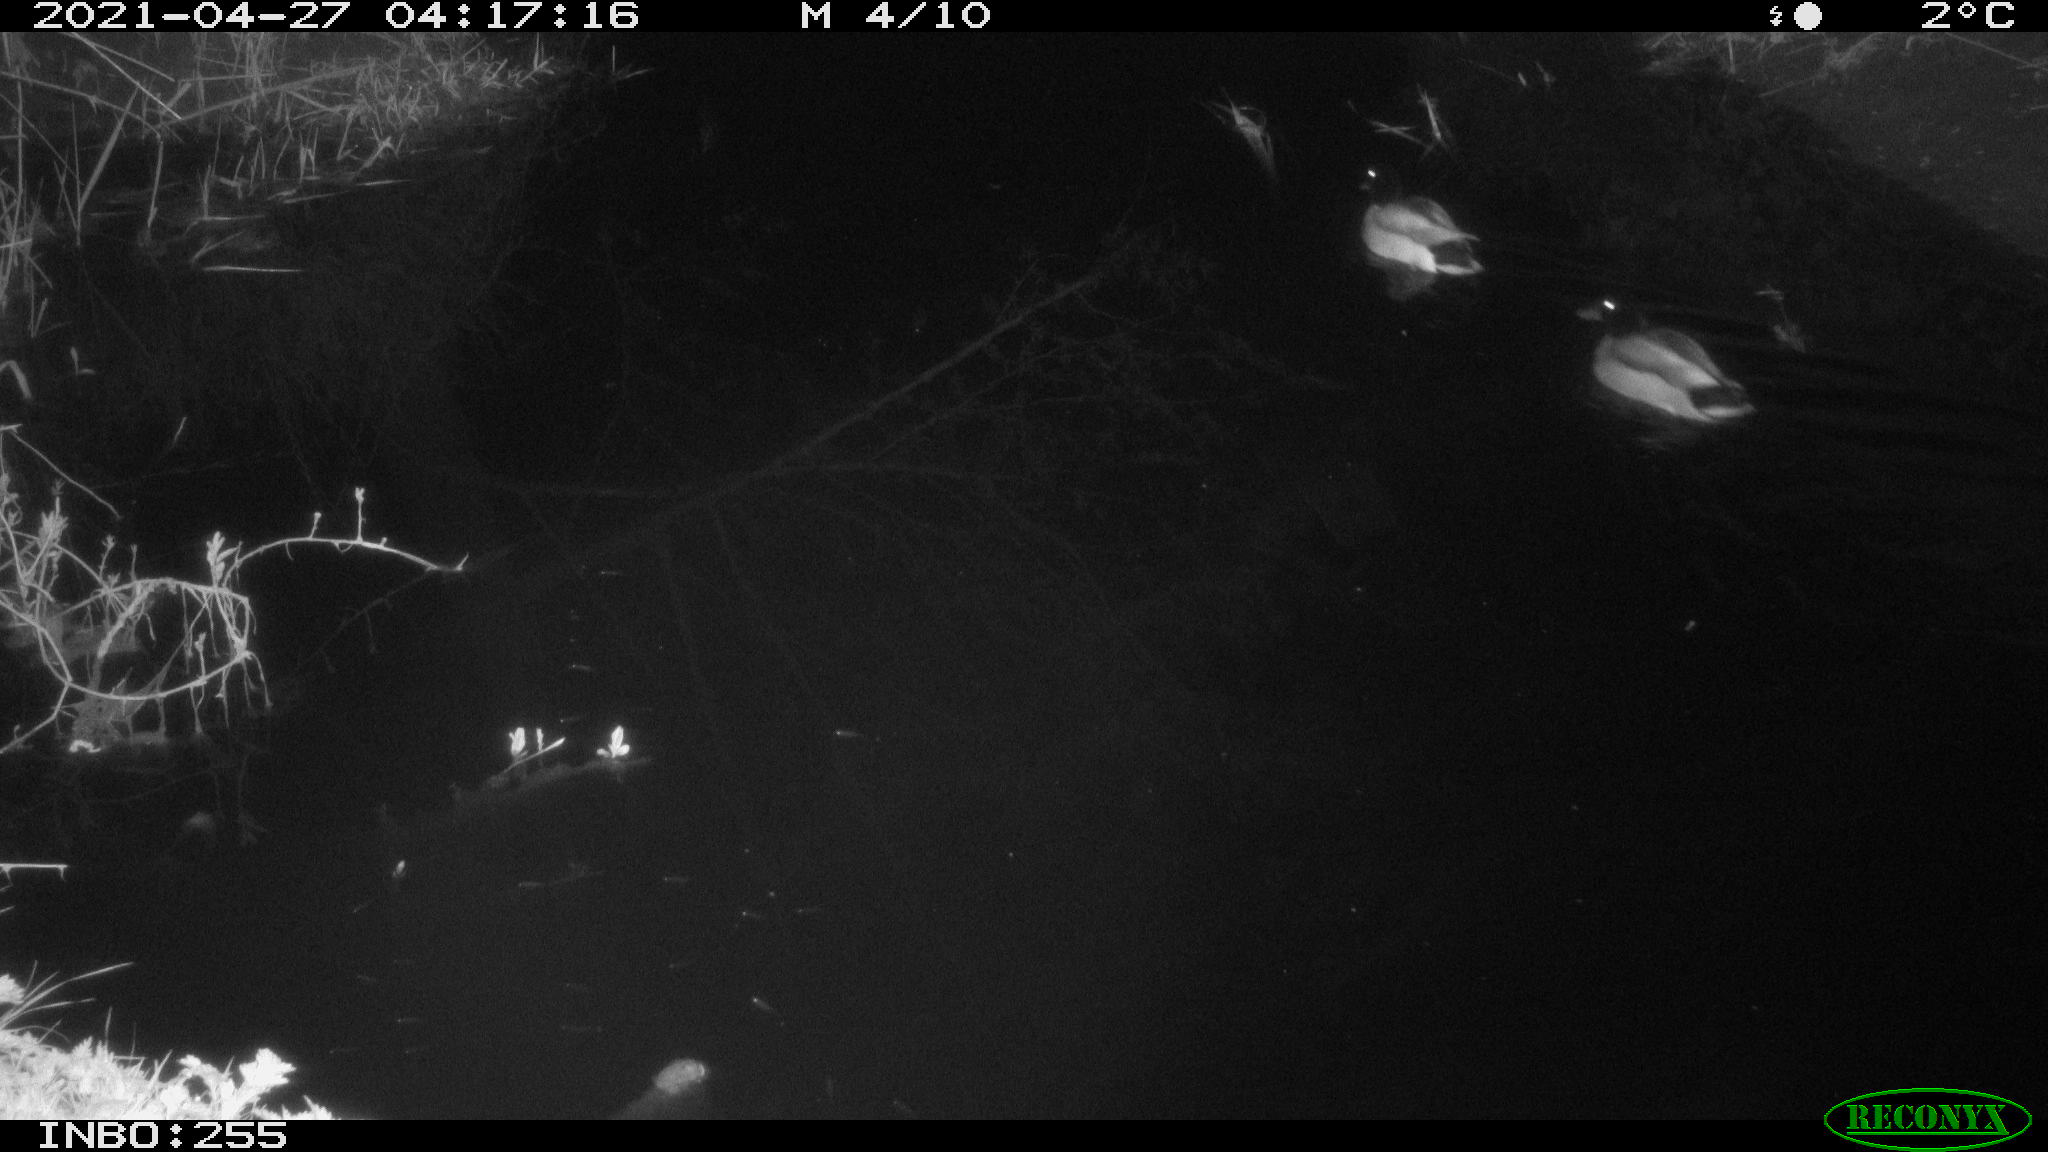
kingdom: Animalia
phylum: Chordata
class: Aves
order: Anseriformes
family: Anatidae
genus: Anas
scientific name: Anas platyrhynchos
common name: Mallard
